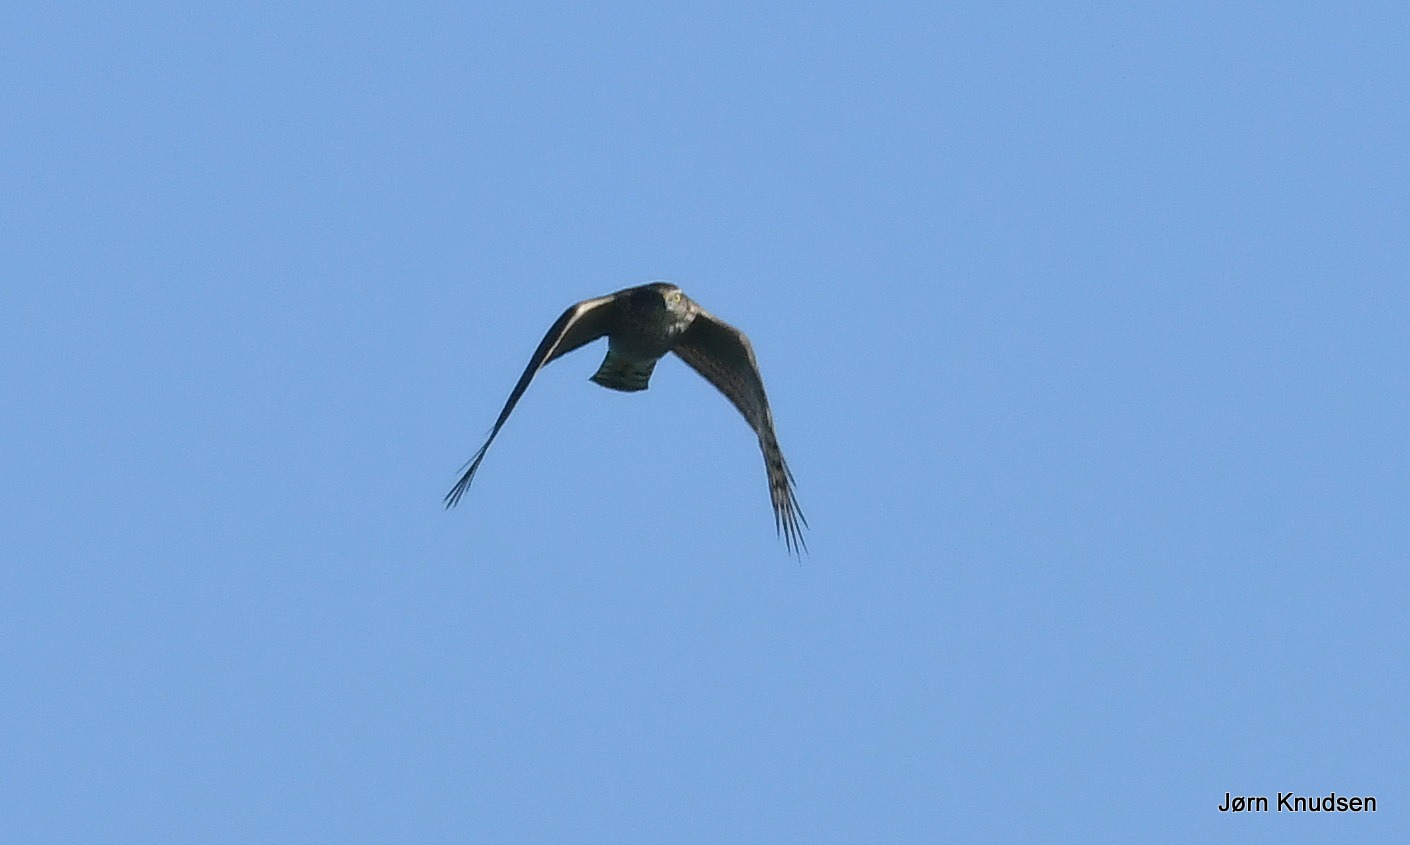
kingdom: Animalia
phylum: Chordata
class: Aves
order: Accipitriformes
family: Accipitridae
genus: Accipiter
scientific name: Accipiter nisus
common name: Spurvehøg
